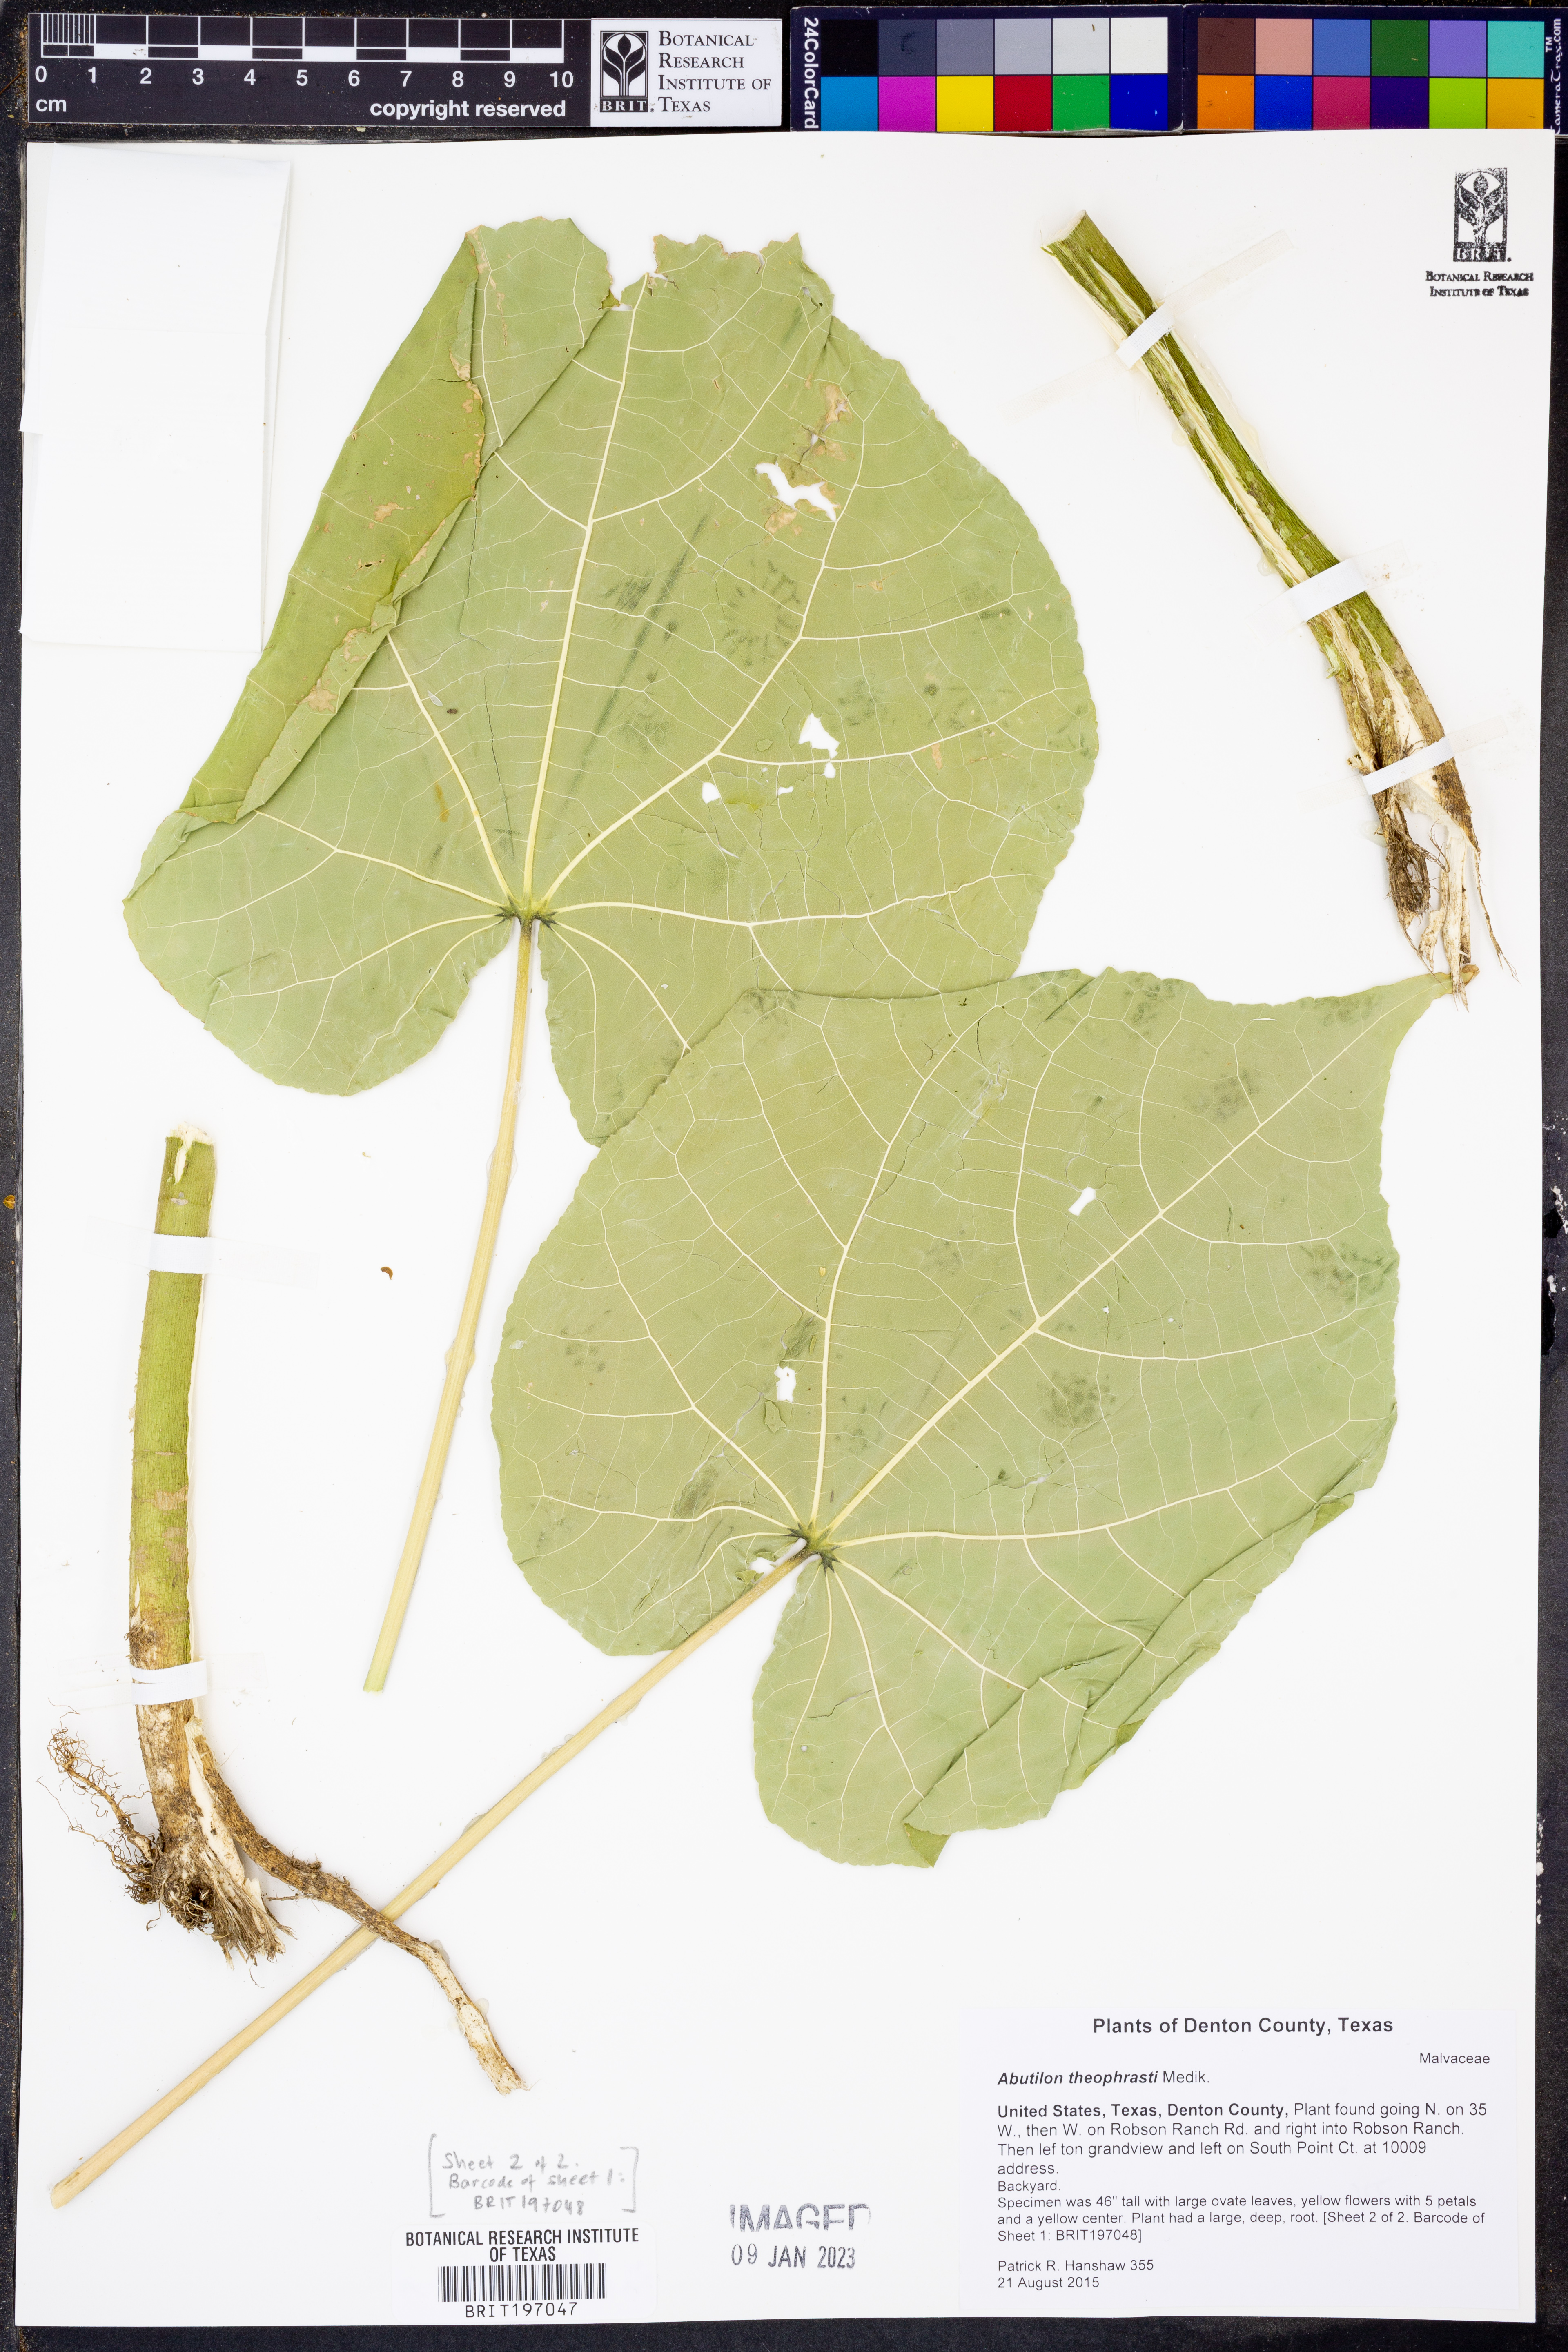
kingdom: Plantae
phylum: Tracheophyta
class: Magnoliopsida
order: Malvales
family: Malvaceae
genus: Abutilon
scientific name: Abutilon theophrasti
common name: Velvetleaf
